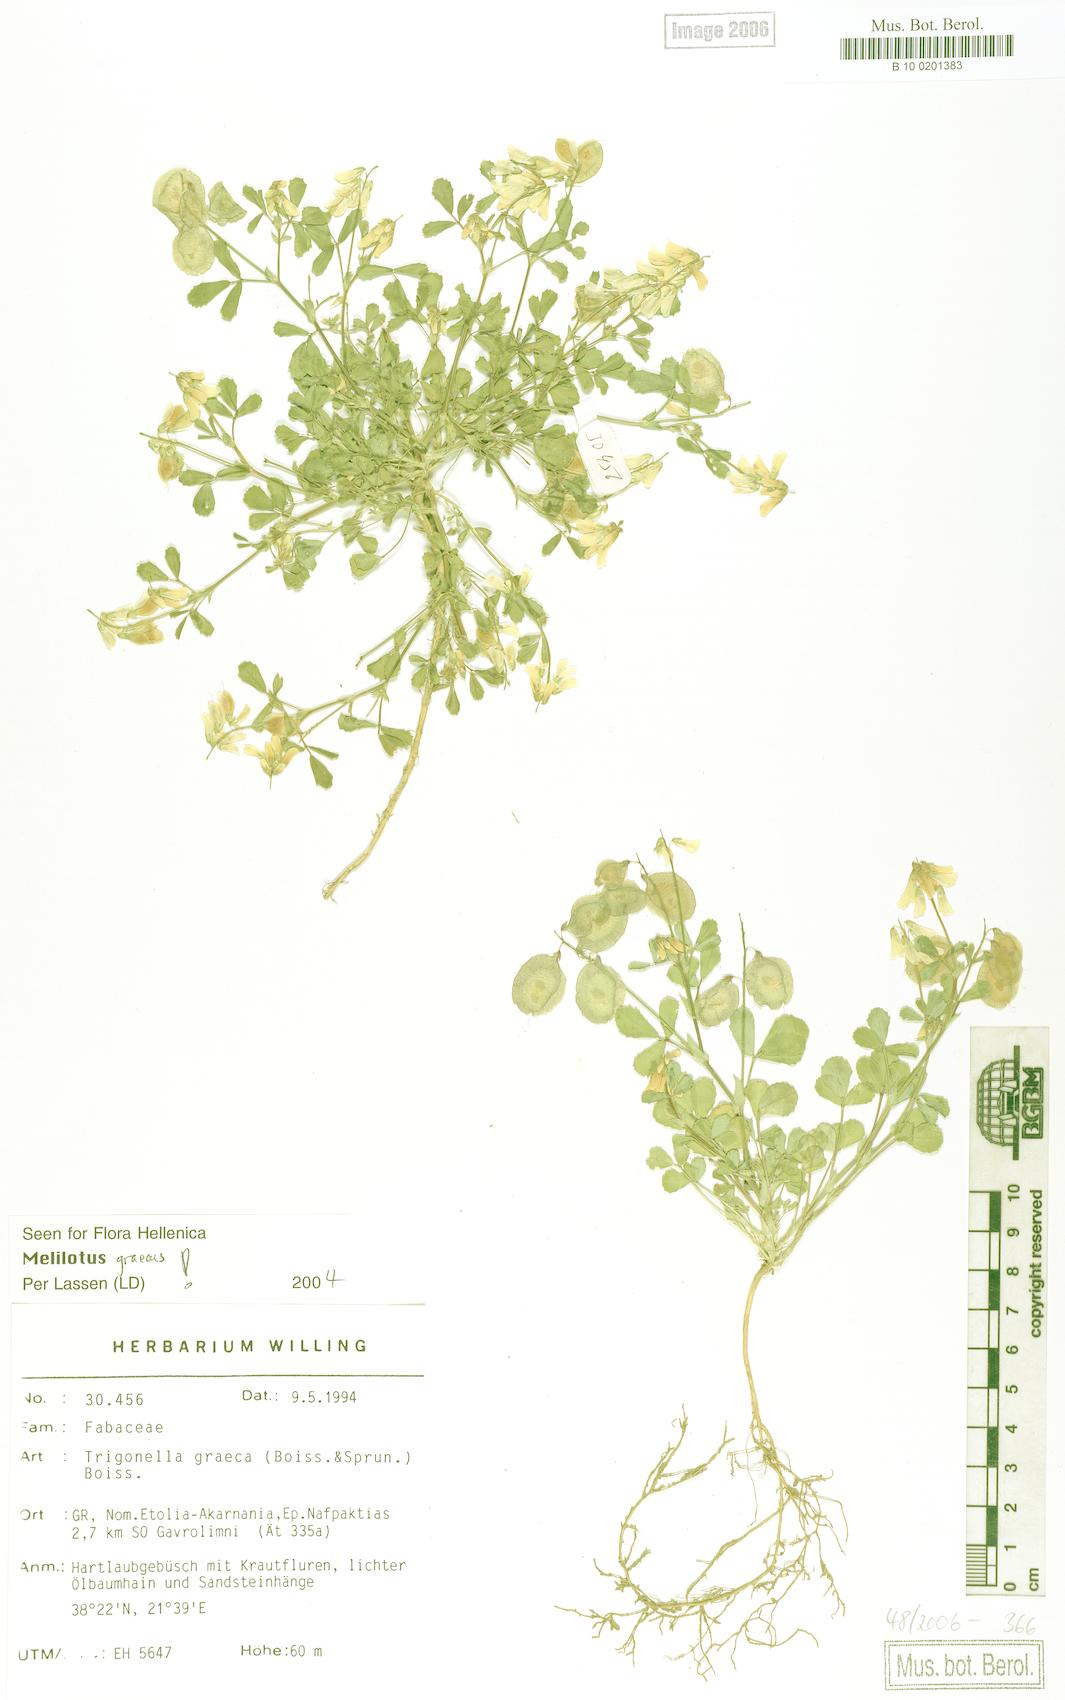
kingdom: Plantae
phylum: Tracheophyta
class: Magnoliopsida
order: Fabales
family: Fabaceae
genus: Trigonella
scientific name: Trigonella graeca
